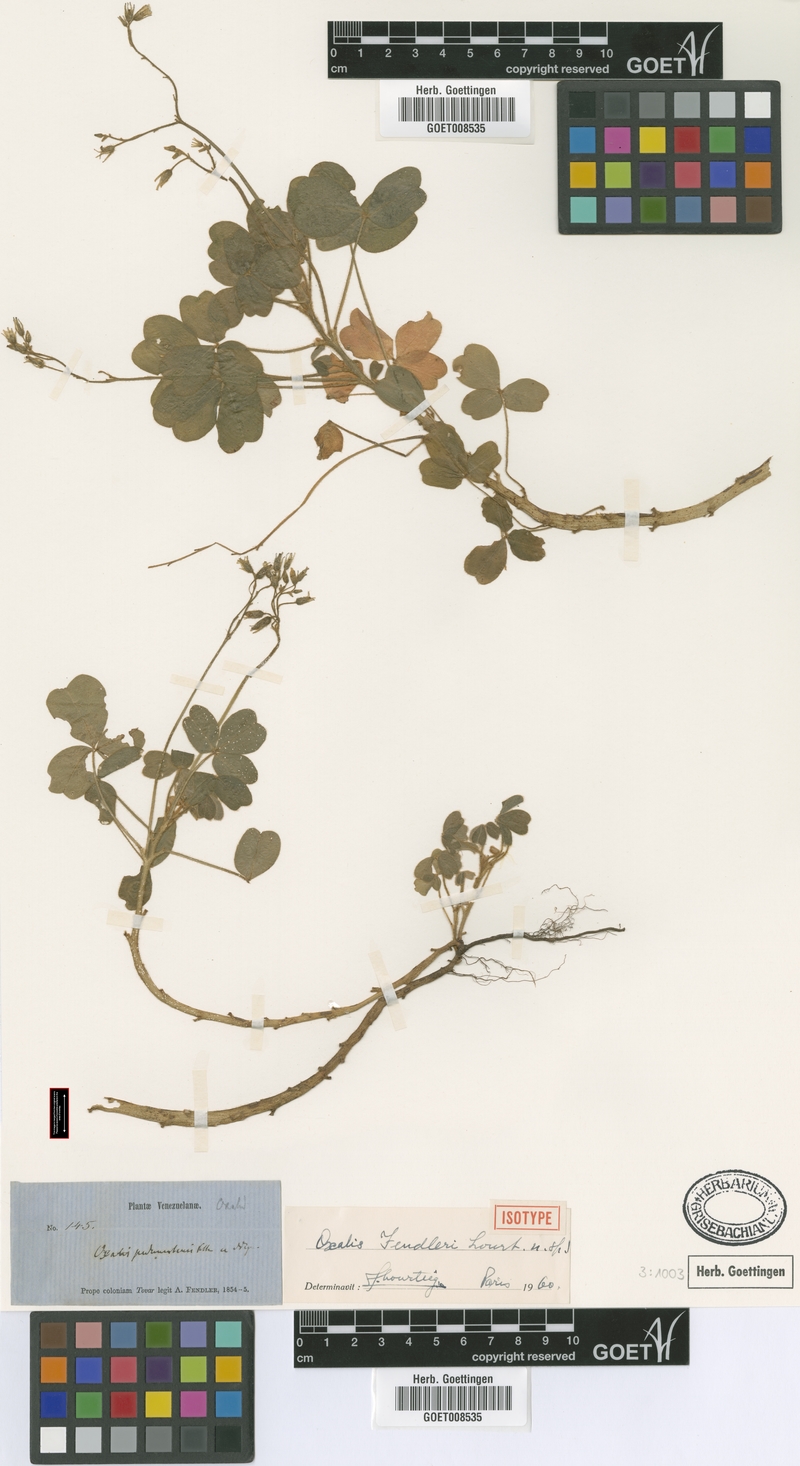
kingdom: Plantae
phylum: Tracheophyta
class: Magnoliopsida
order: Oxalidales
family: Oxalidaceae
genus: Oxalis
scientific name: Oxalis fendleri
